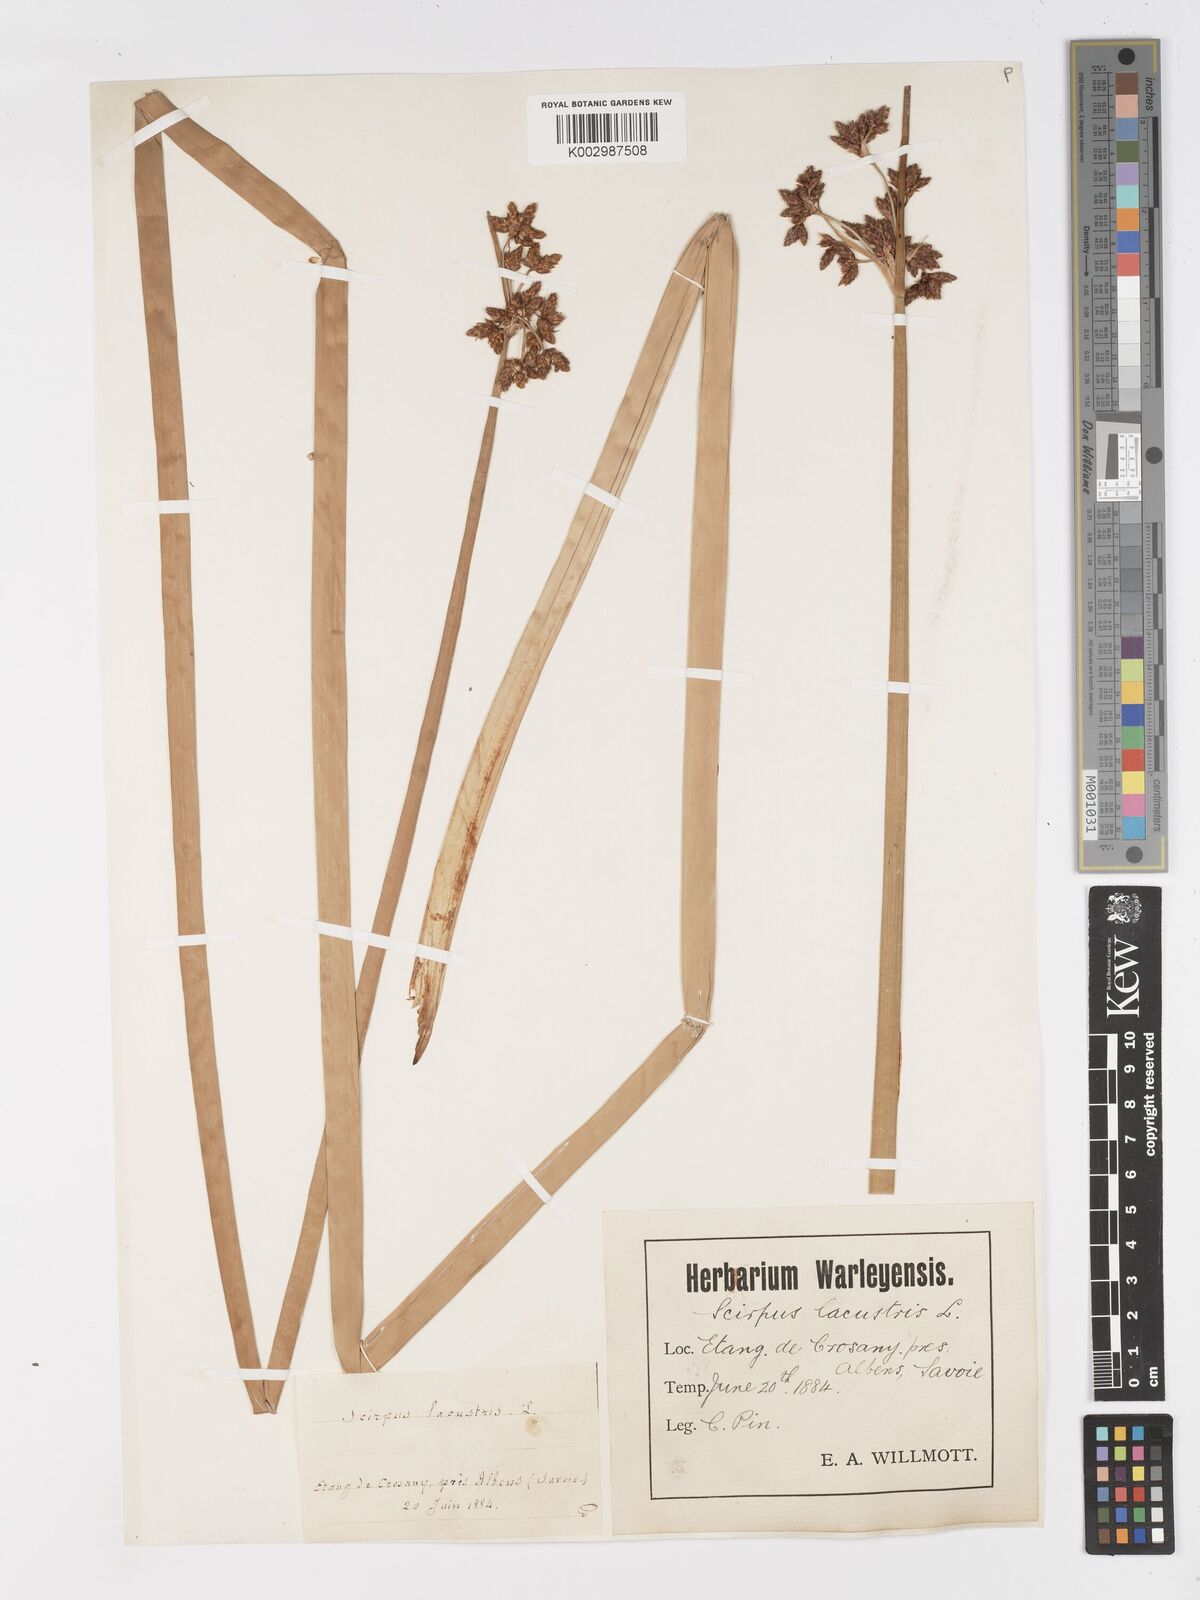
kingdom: Plantae
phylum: Tracheophyta
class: Liliopsida
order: Poales
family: Cyperaceae
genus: Schoenoplectus
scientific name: Schoenoplectus lacustris
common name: Common club-rush
